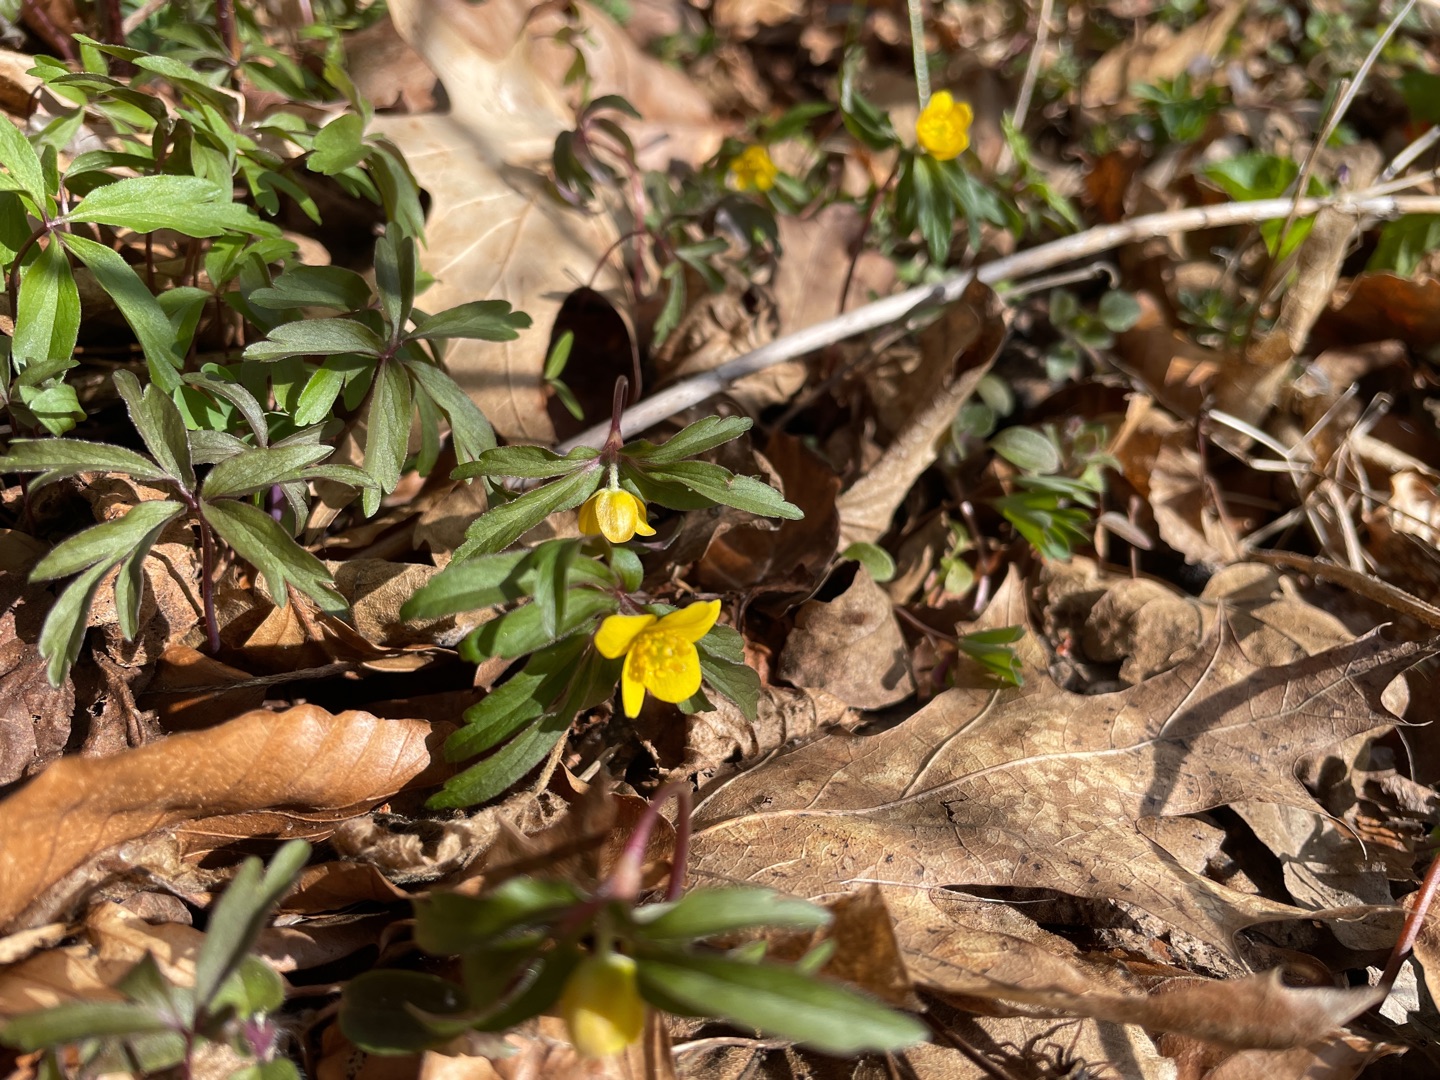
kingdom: Plantae
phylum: Tracheophyta
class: Magnoliopsida
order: Ranunculales
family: Ranunculaceae
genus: Anemone
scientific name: Anemone ranunculoides
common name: Gul anemone
